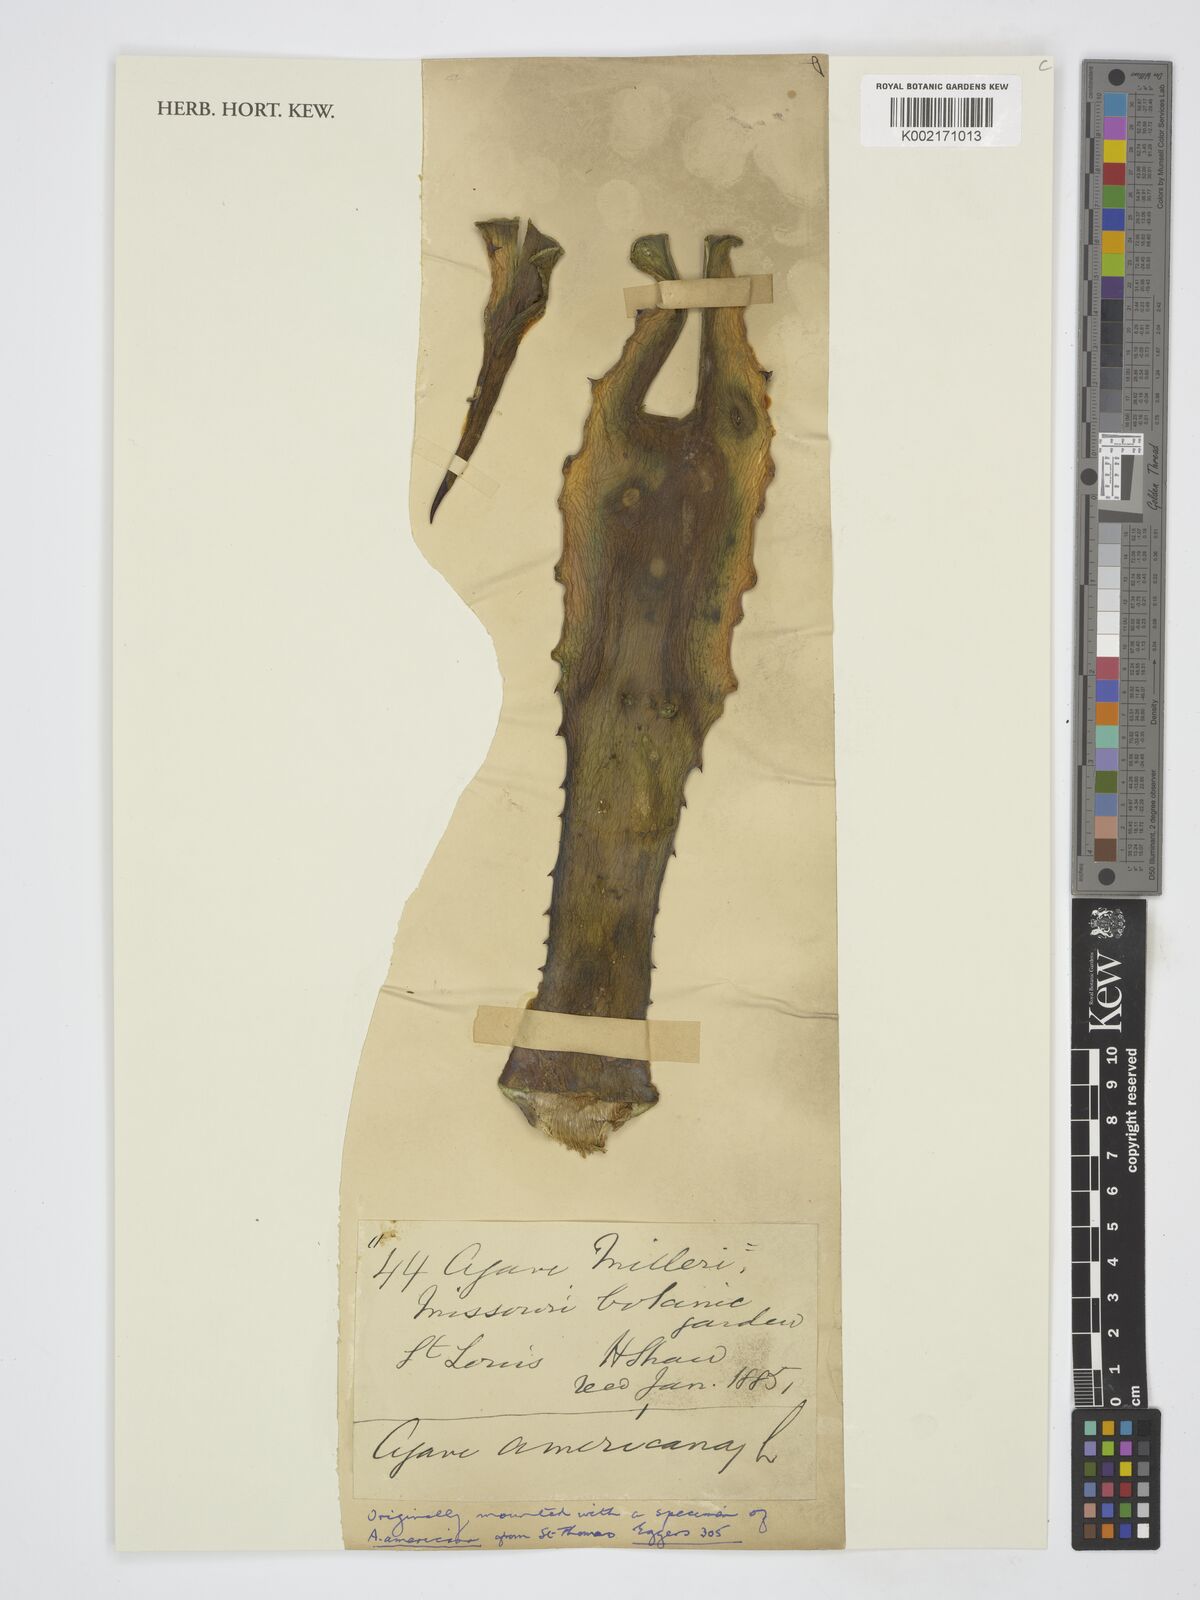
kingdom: Plantae
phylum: Tracheophyta
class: Liliopsida
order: Asparagales
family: Asparagaceae
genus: Agave
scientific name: Agave
